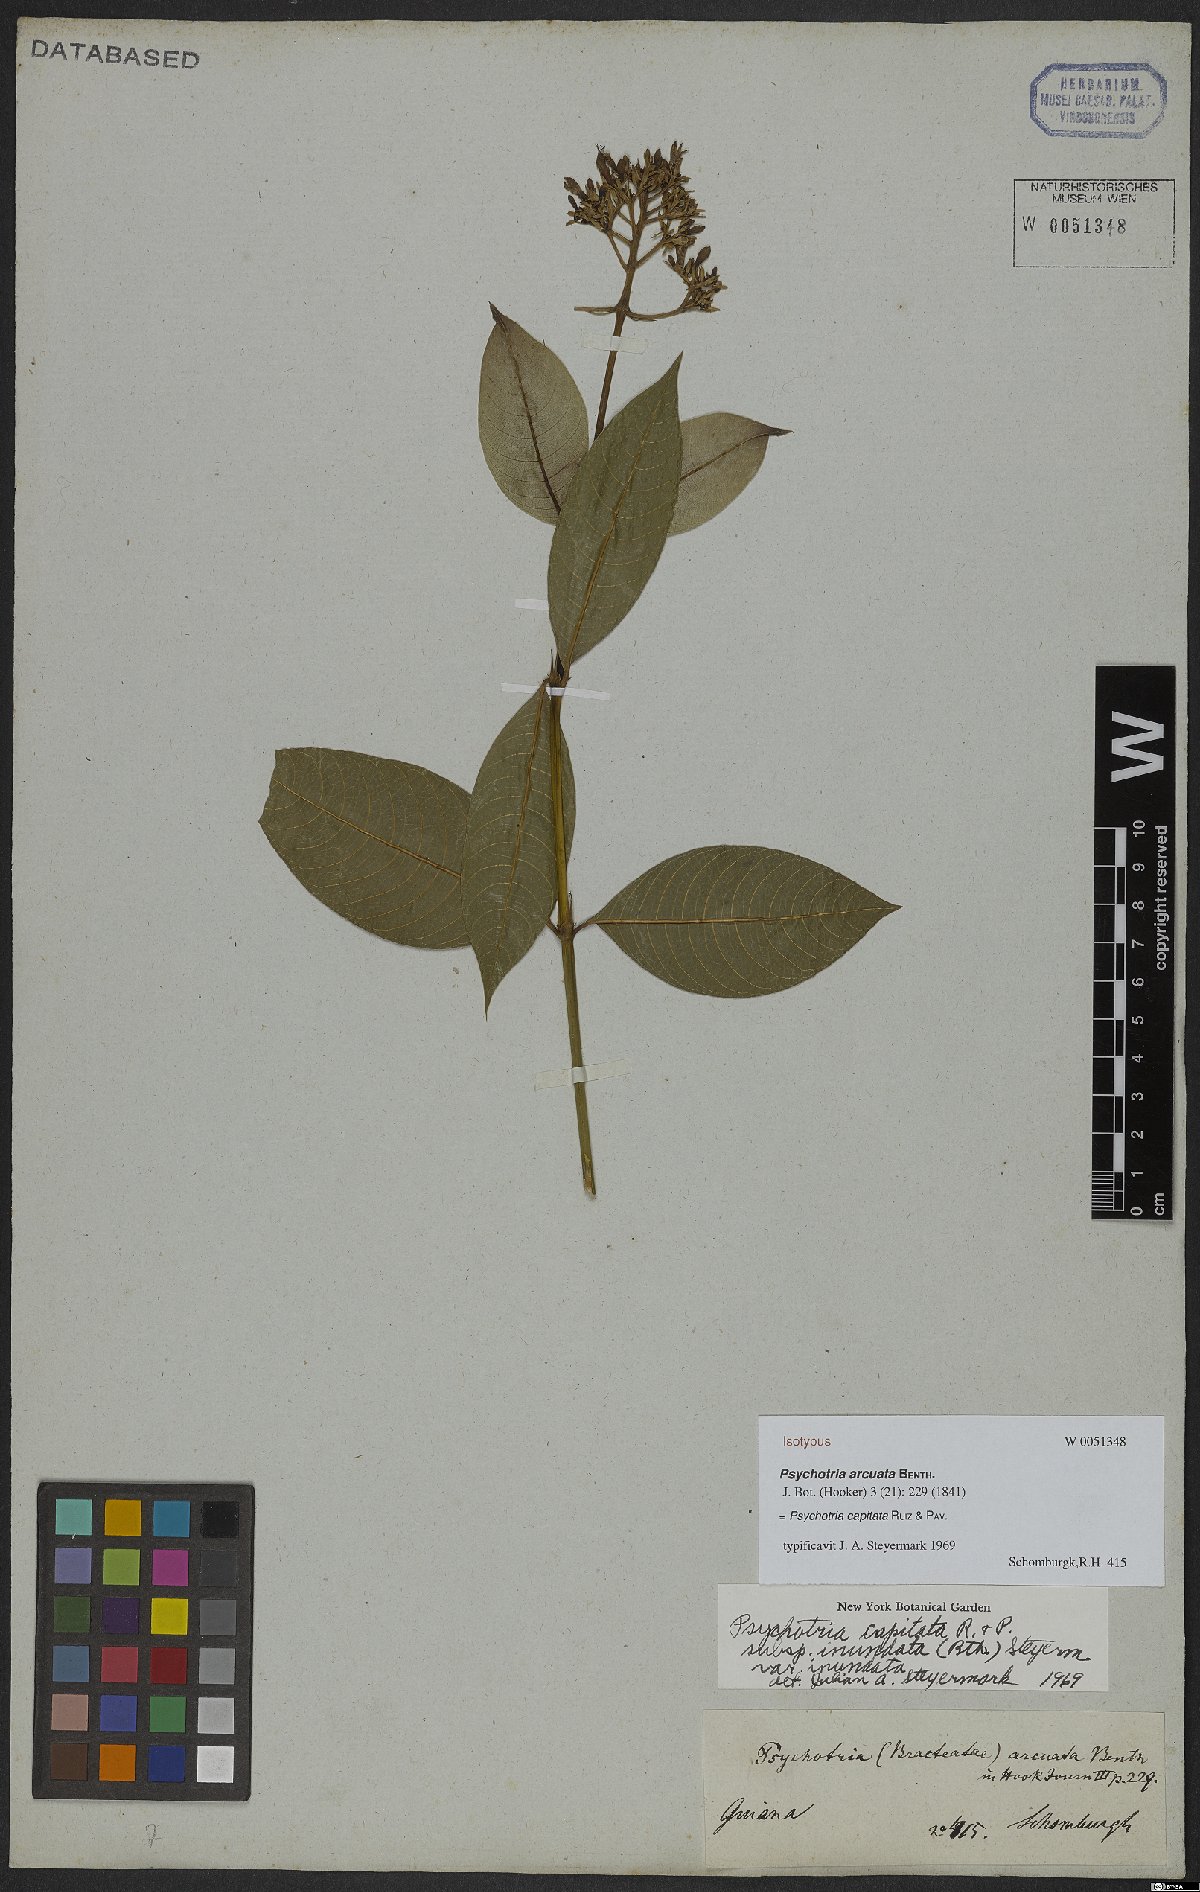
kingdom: Plantae
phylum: Tracheophyta
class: Magnoliopsida
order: Gentianales
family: Rubiaceae
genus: Palicourea
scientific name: Palicourea violacea
